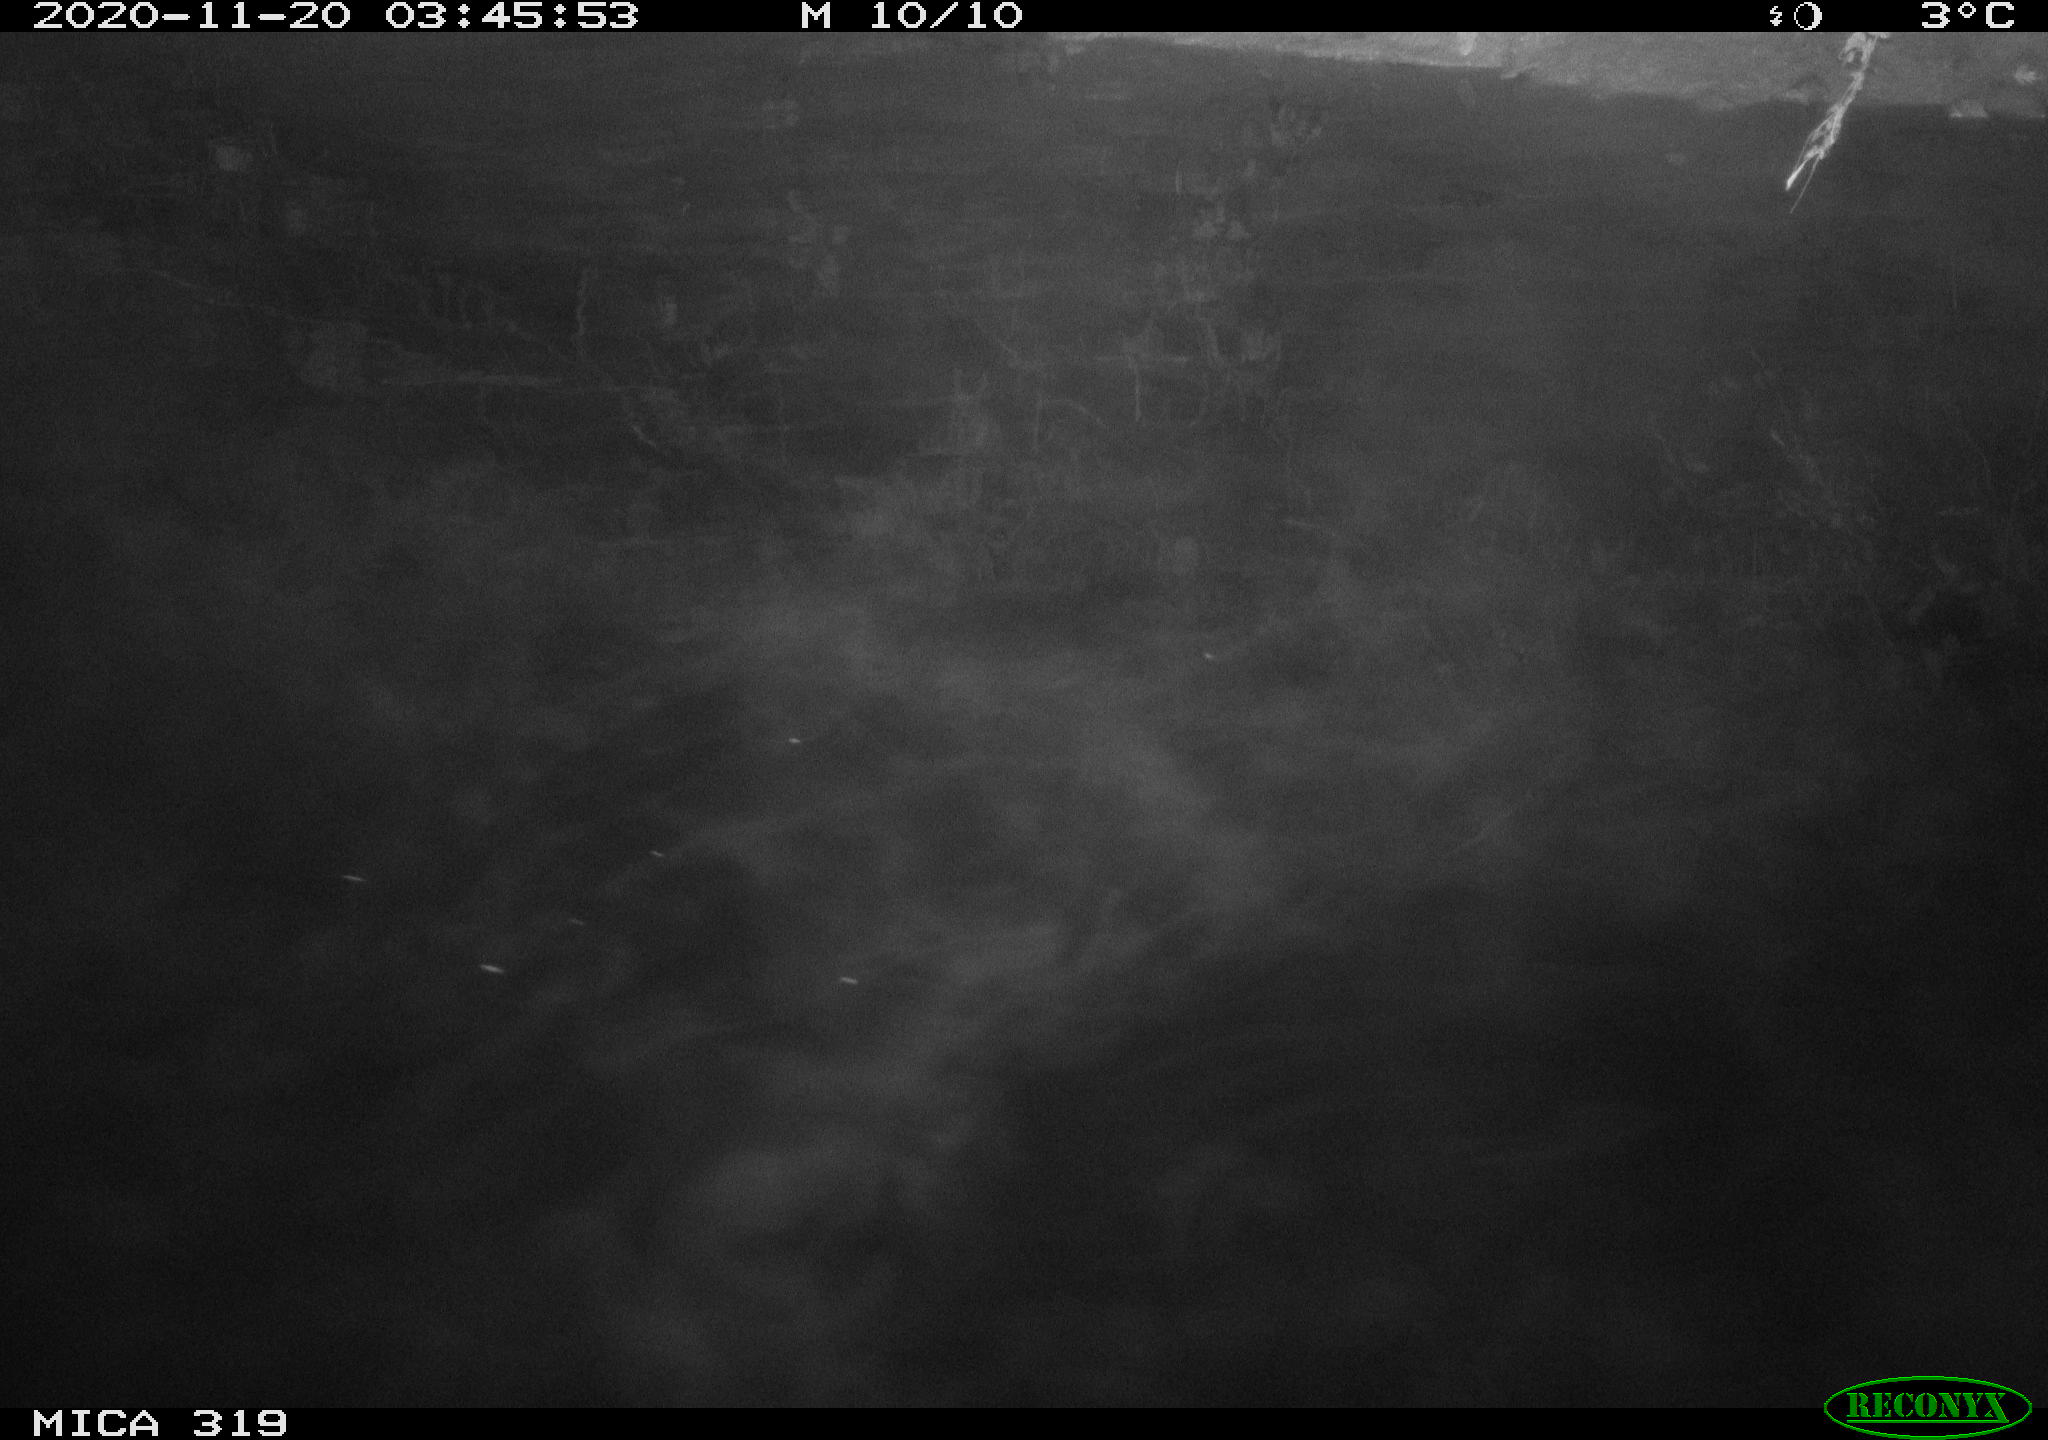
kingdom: Animalia
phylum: Chordata
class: Aves
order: Anseriformes
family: Anatidae
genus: Anas
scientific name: Anas platyrhynchos
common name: Mallard
